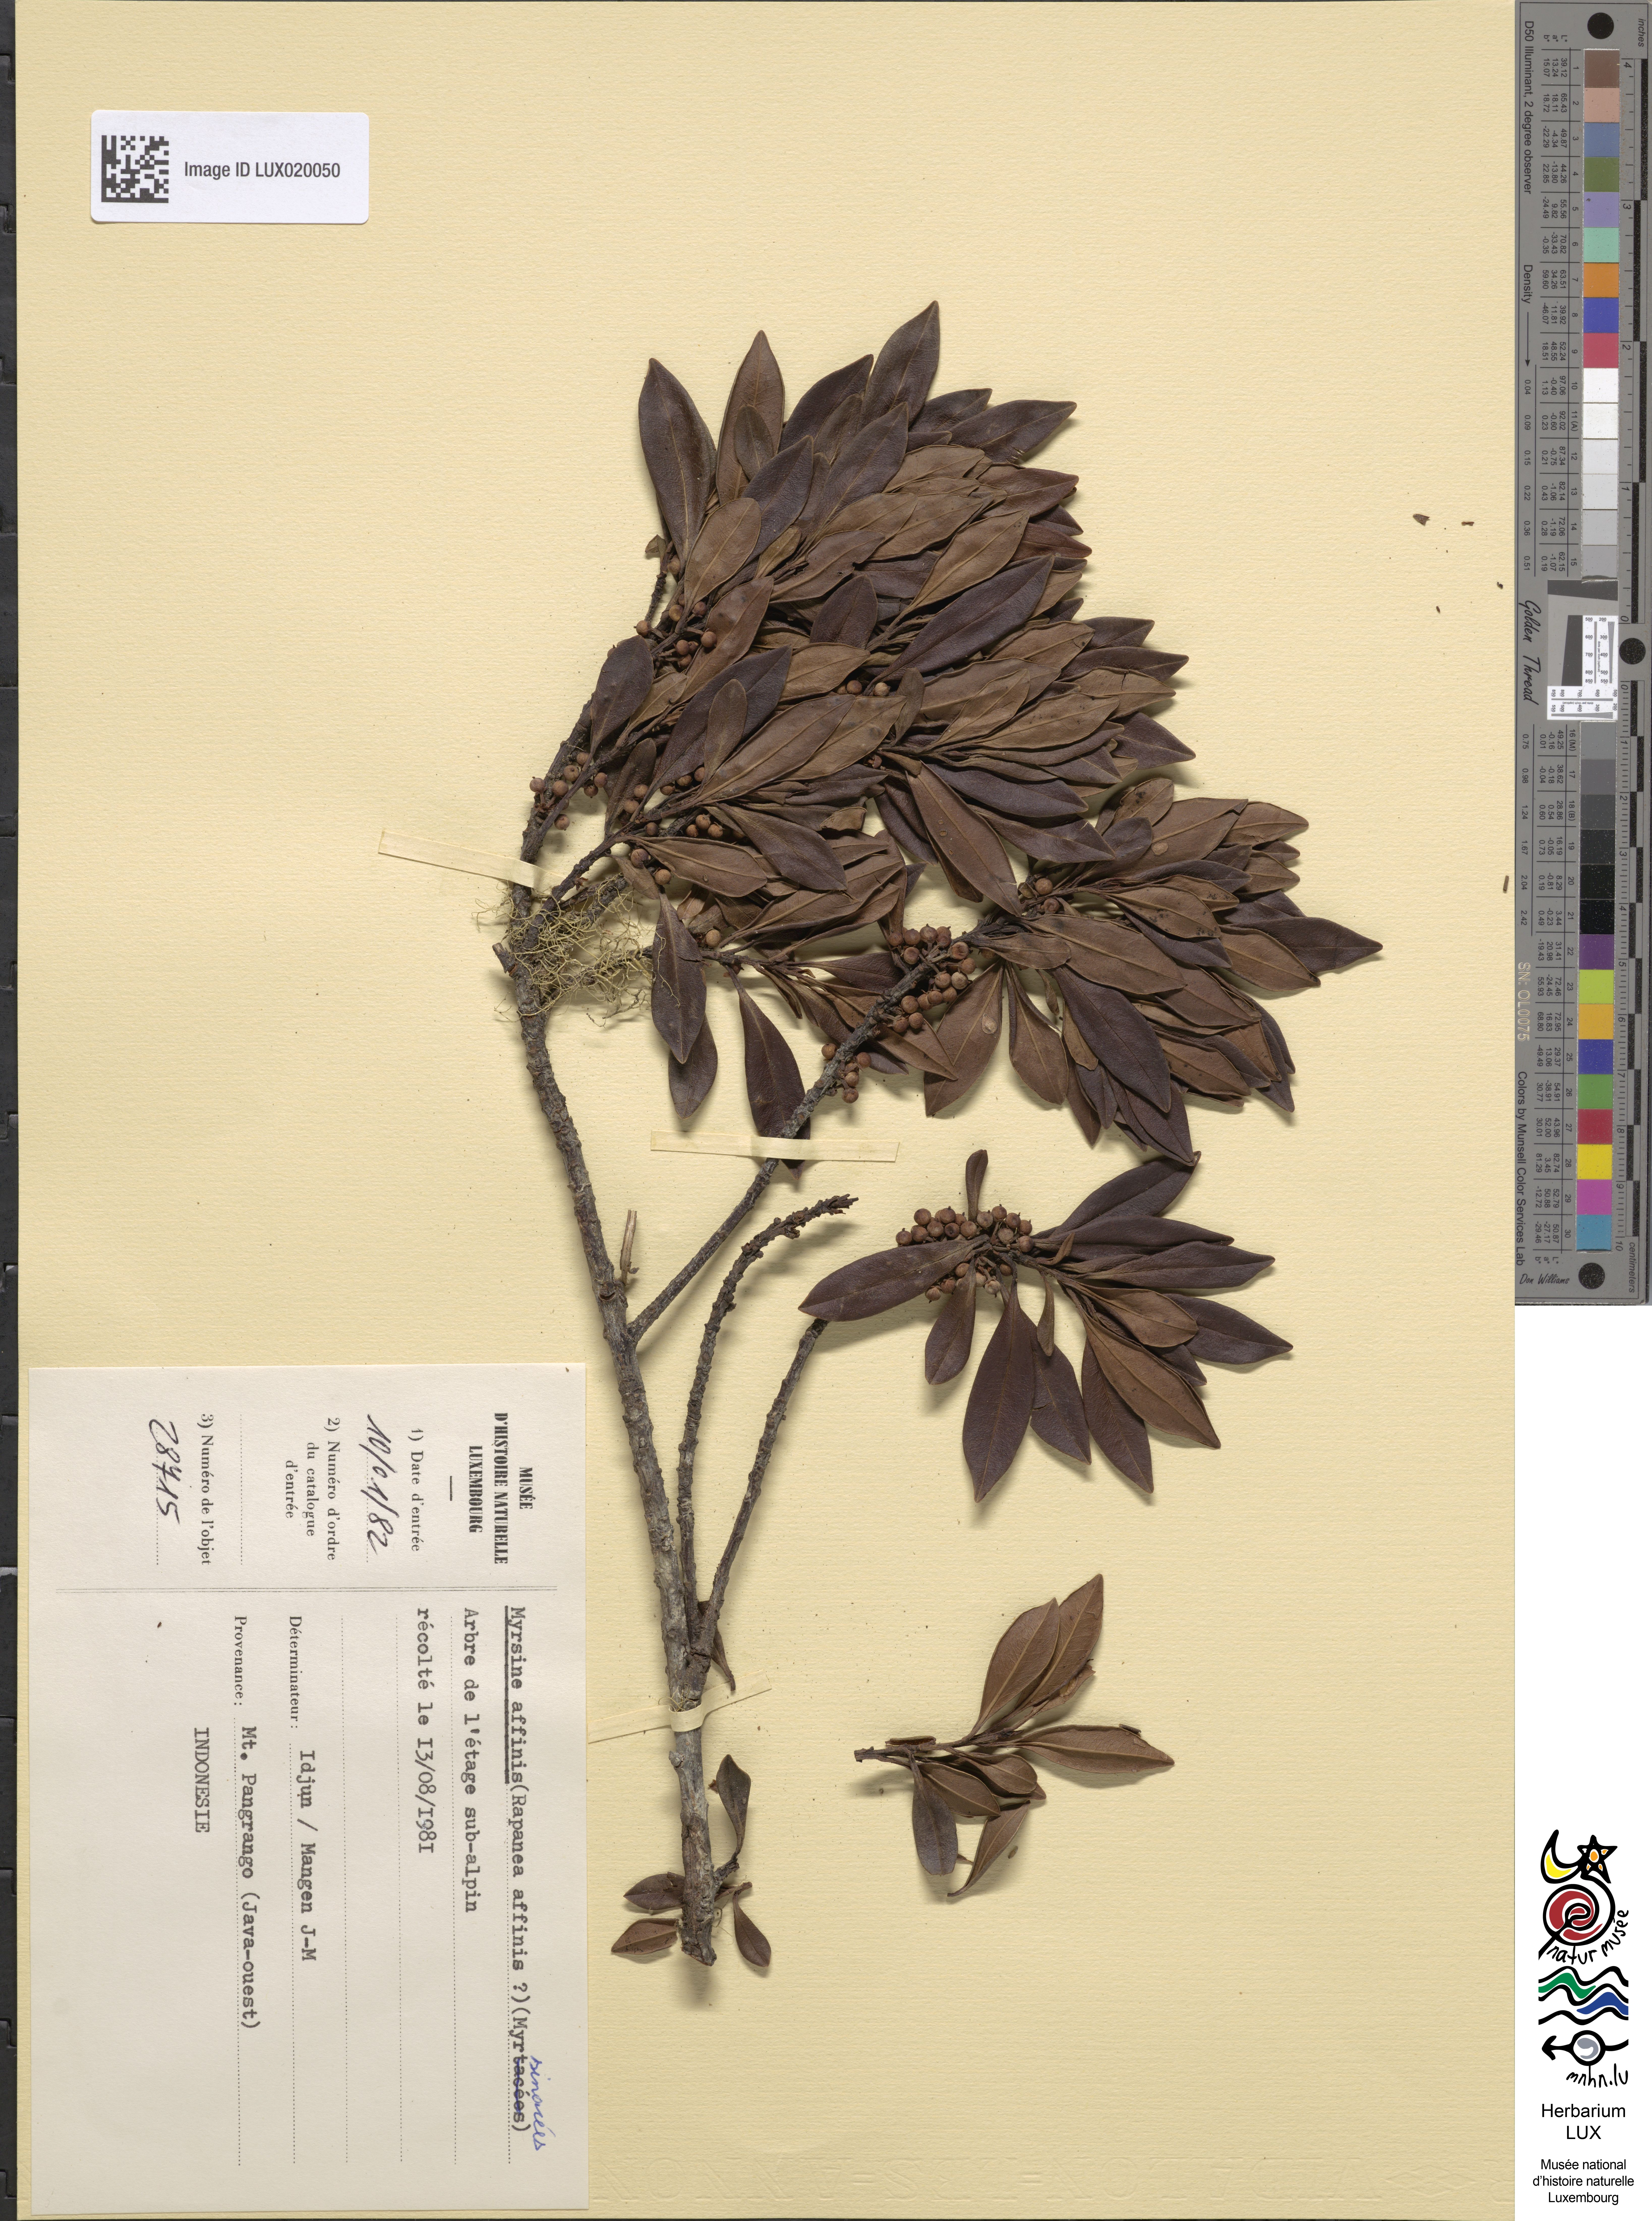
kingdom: Plantae
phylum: Tracheophyta
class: Magnoliopsida
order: Ericales
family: Primulaceae
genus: Myrsine
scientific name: Myrsine affinis
